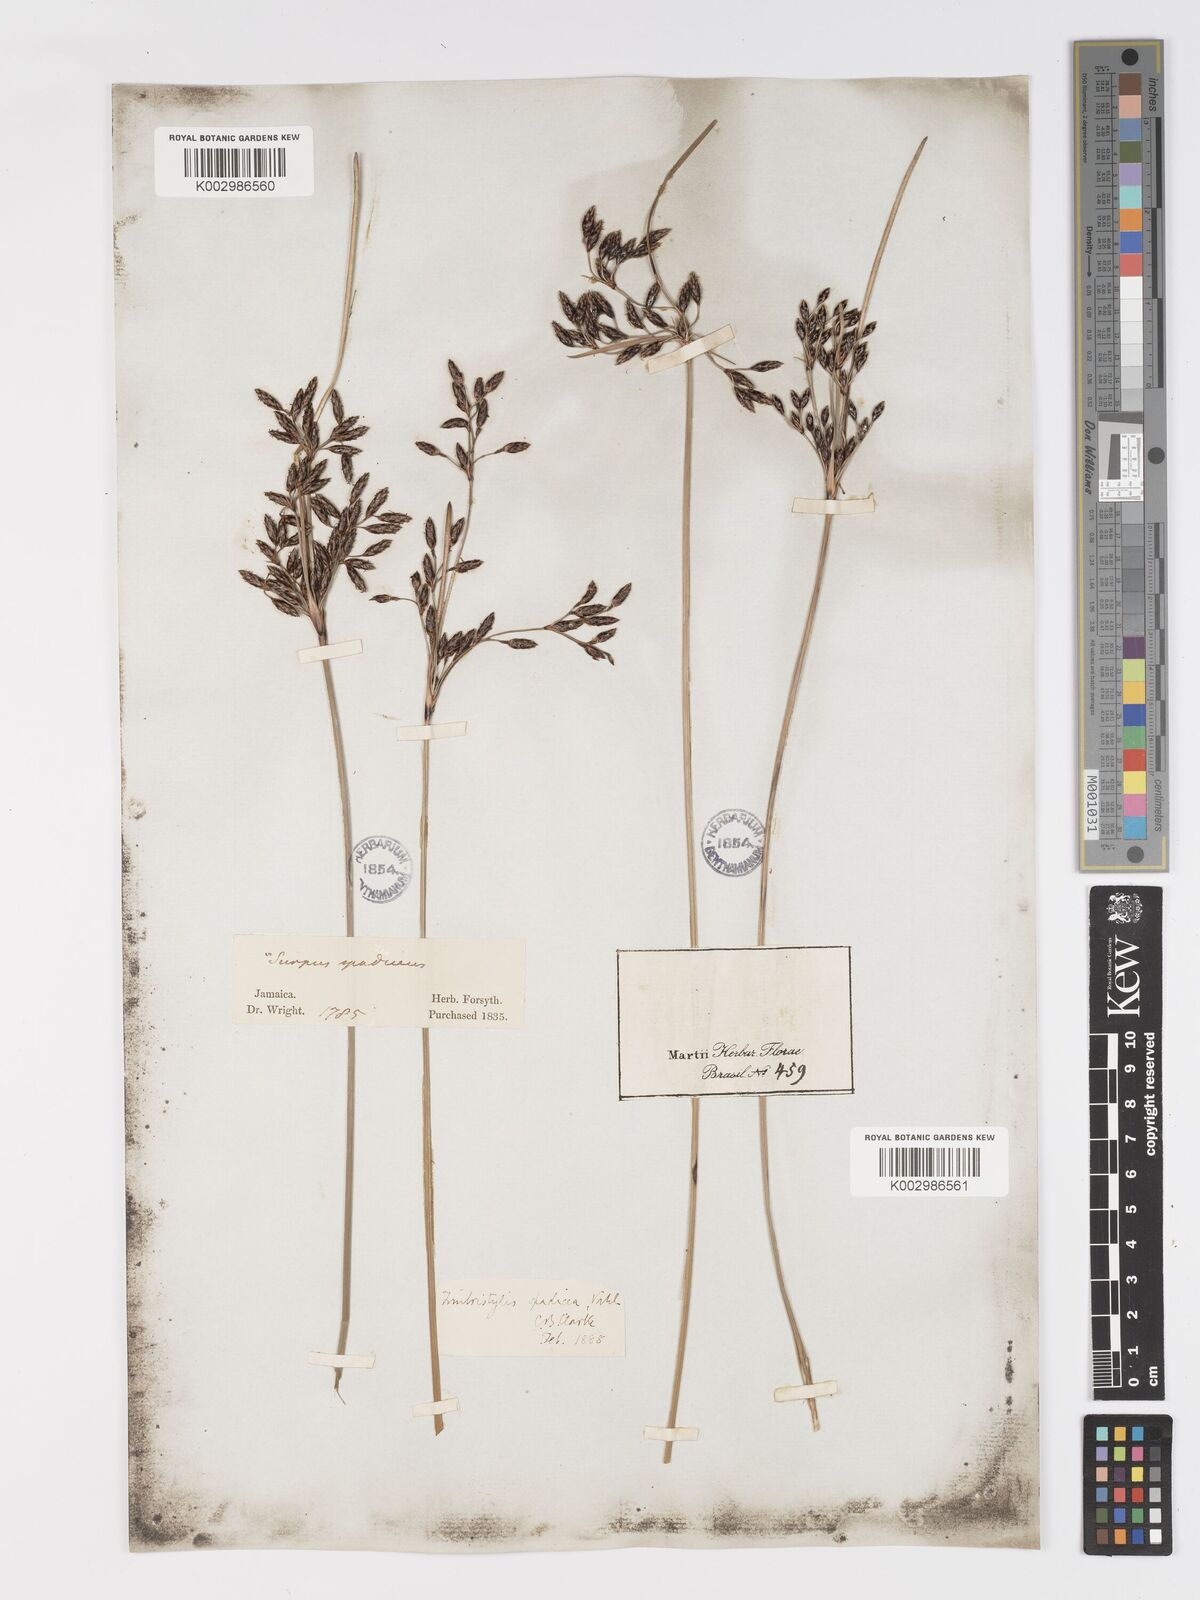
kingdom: Plantae
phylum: Tracheophyta
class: Liliopsida
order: Poales
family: Cyperaceae
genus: Fimbristylis
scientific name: Fimbristylis spadicea
